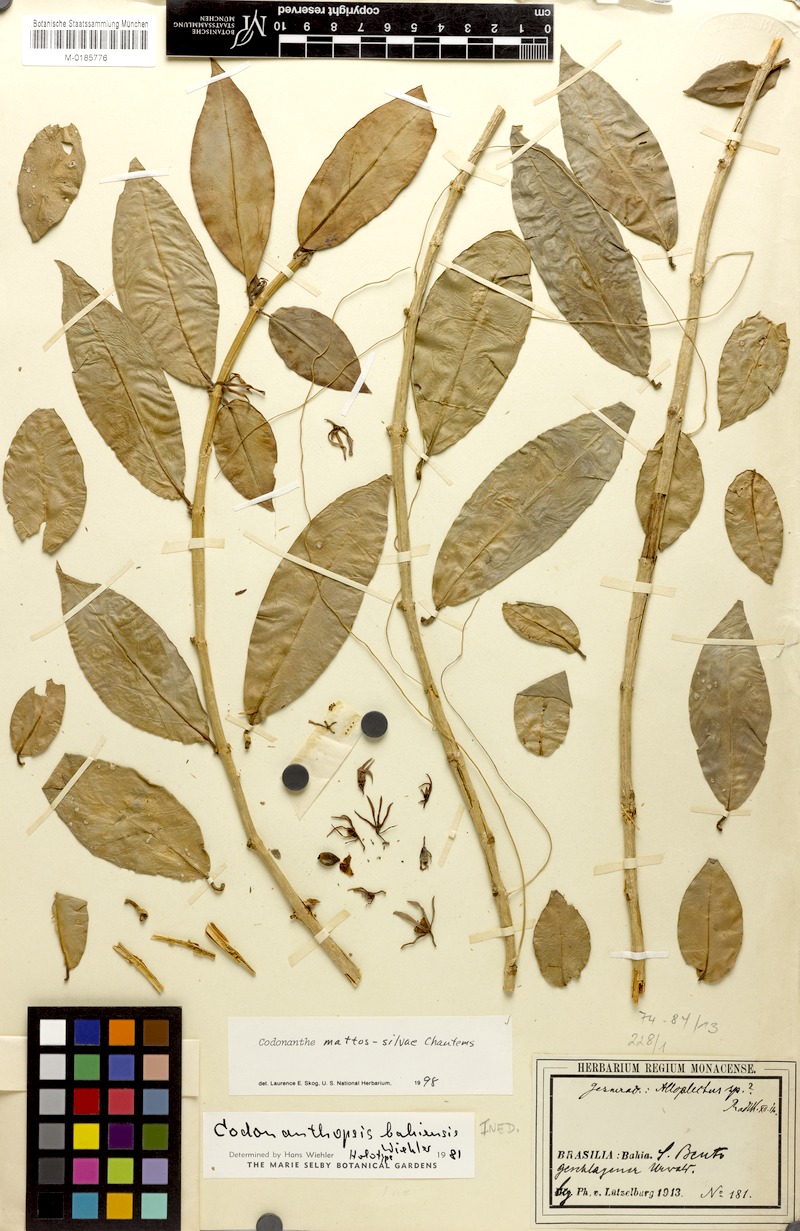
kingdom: Plantae
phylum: Tracheophyta
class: Magnoliopsida
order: Lamiales
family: Gesneriaceae
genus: Codonanthe
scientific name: Codonanthe mattos-silvae
